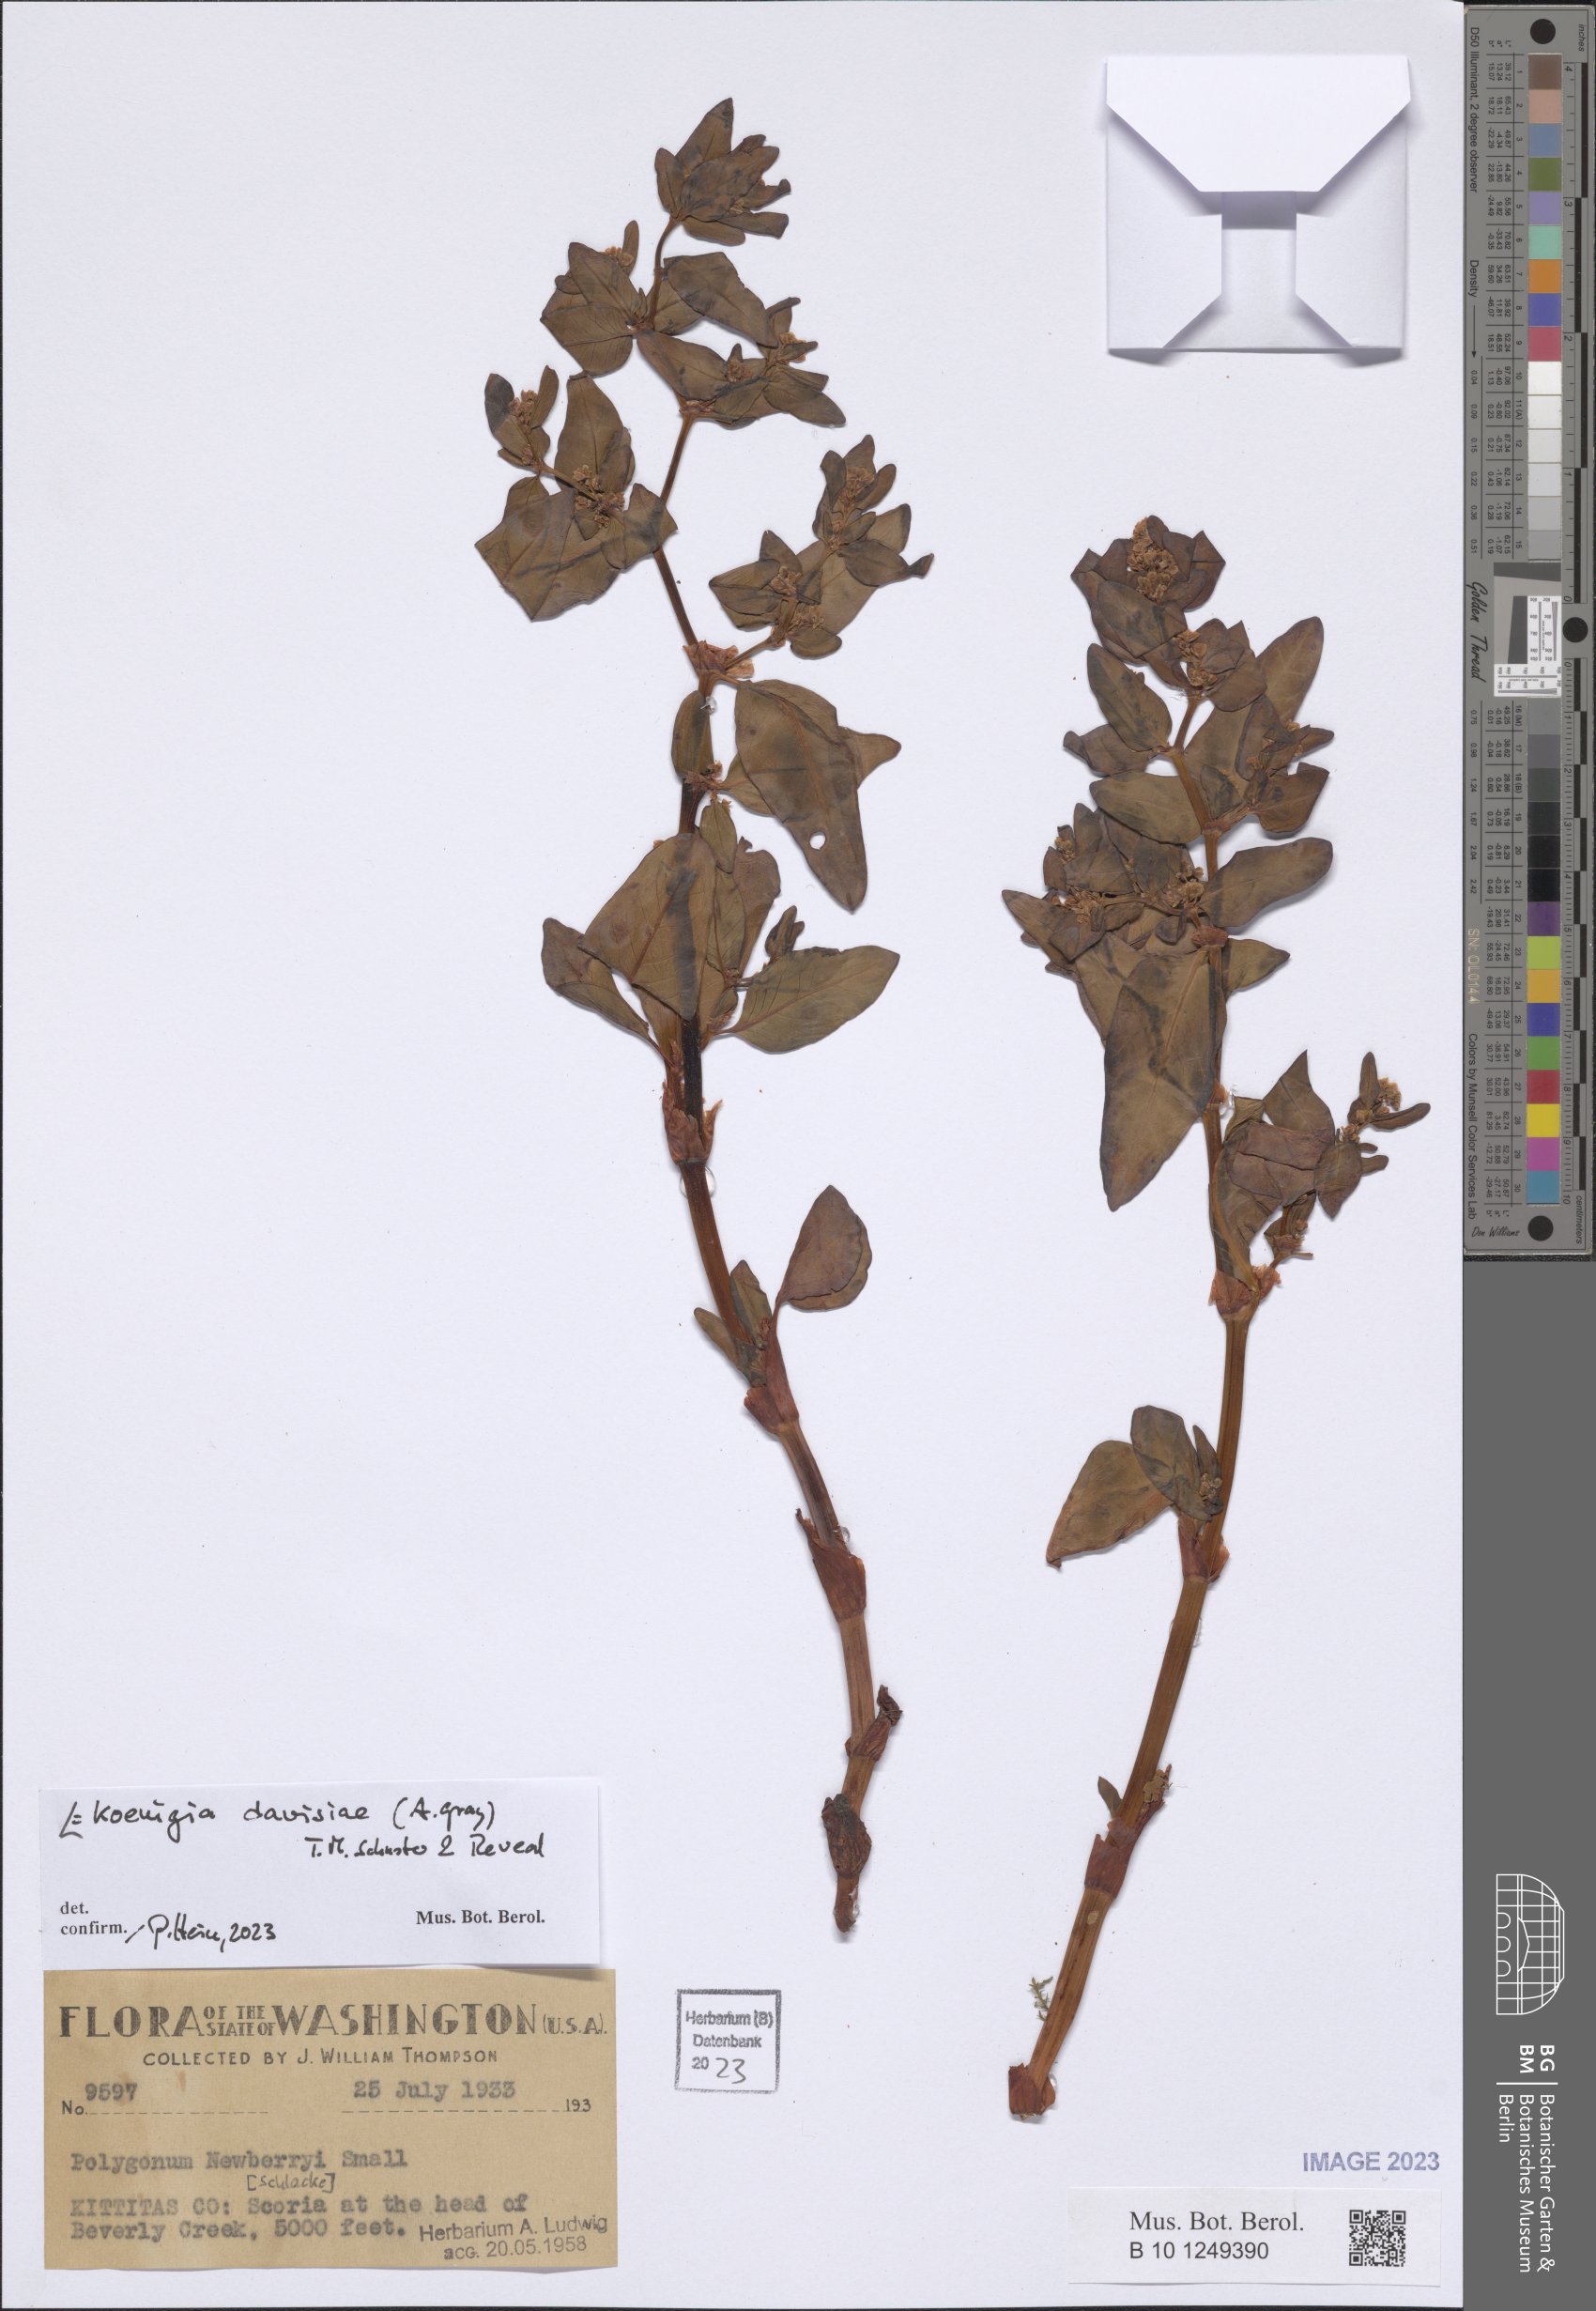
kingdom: Plantae
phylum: Tracheophyta
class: Magnoliopsida
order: Caryophyllales
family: Polygonaceae
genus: Koenigia
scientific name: Koenigia davisiae
